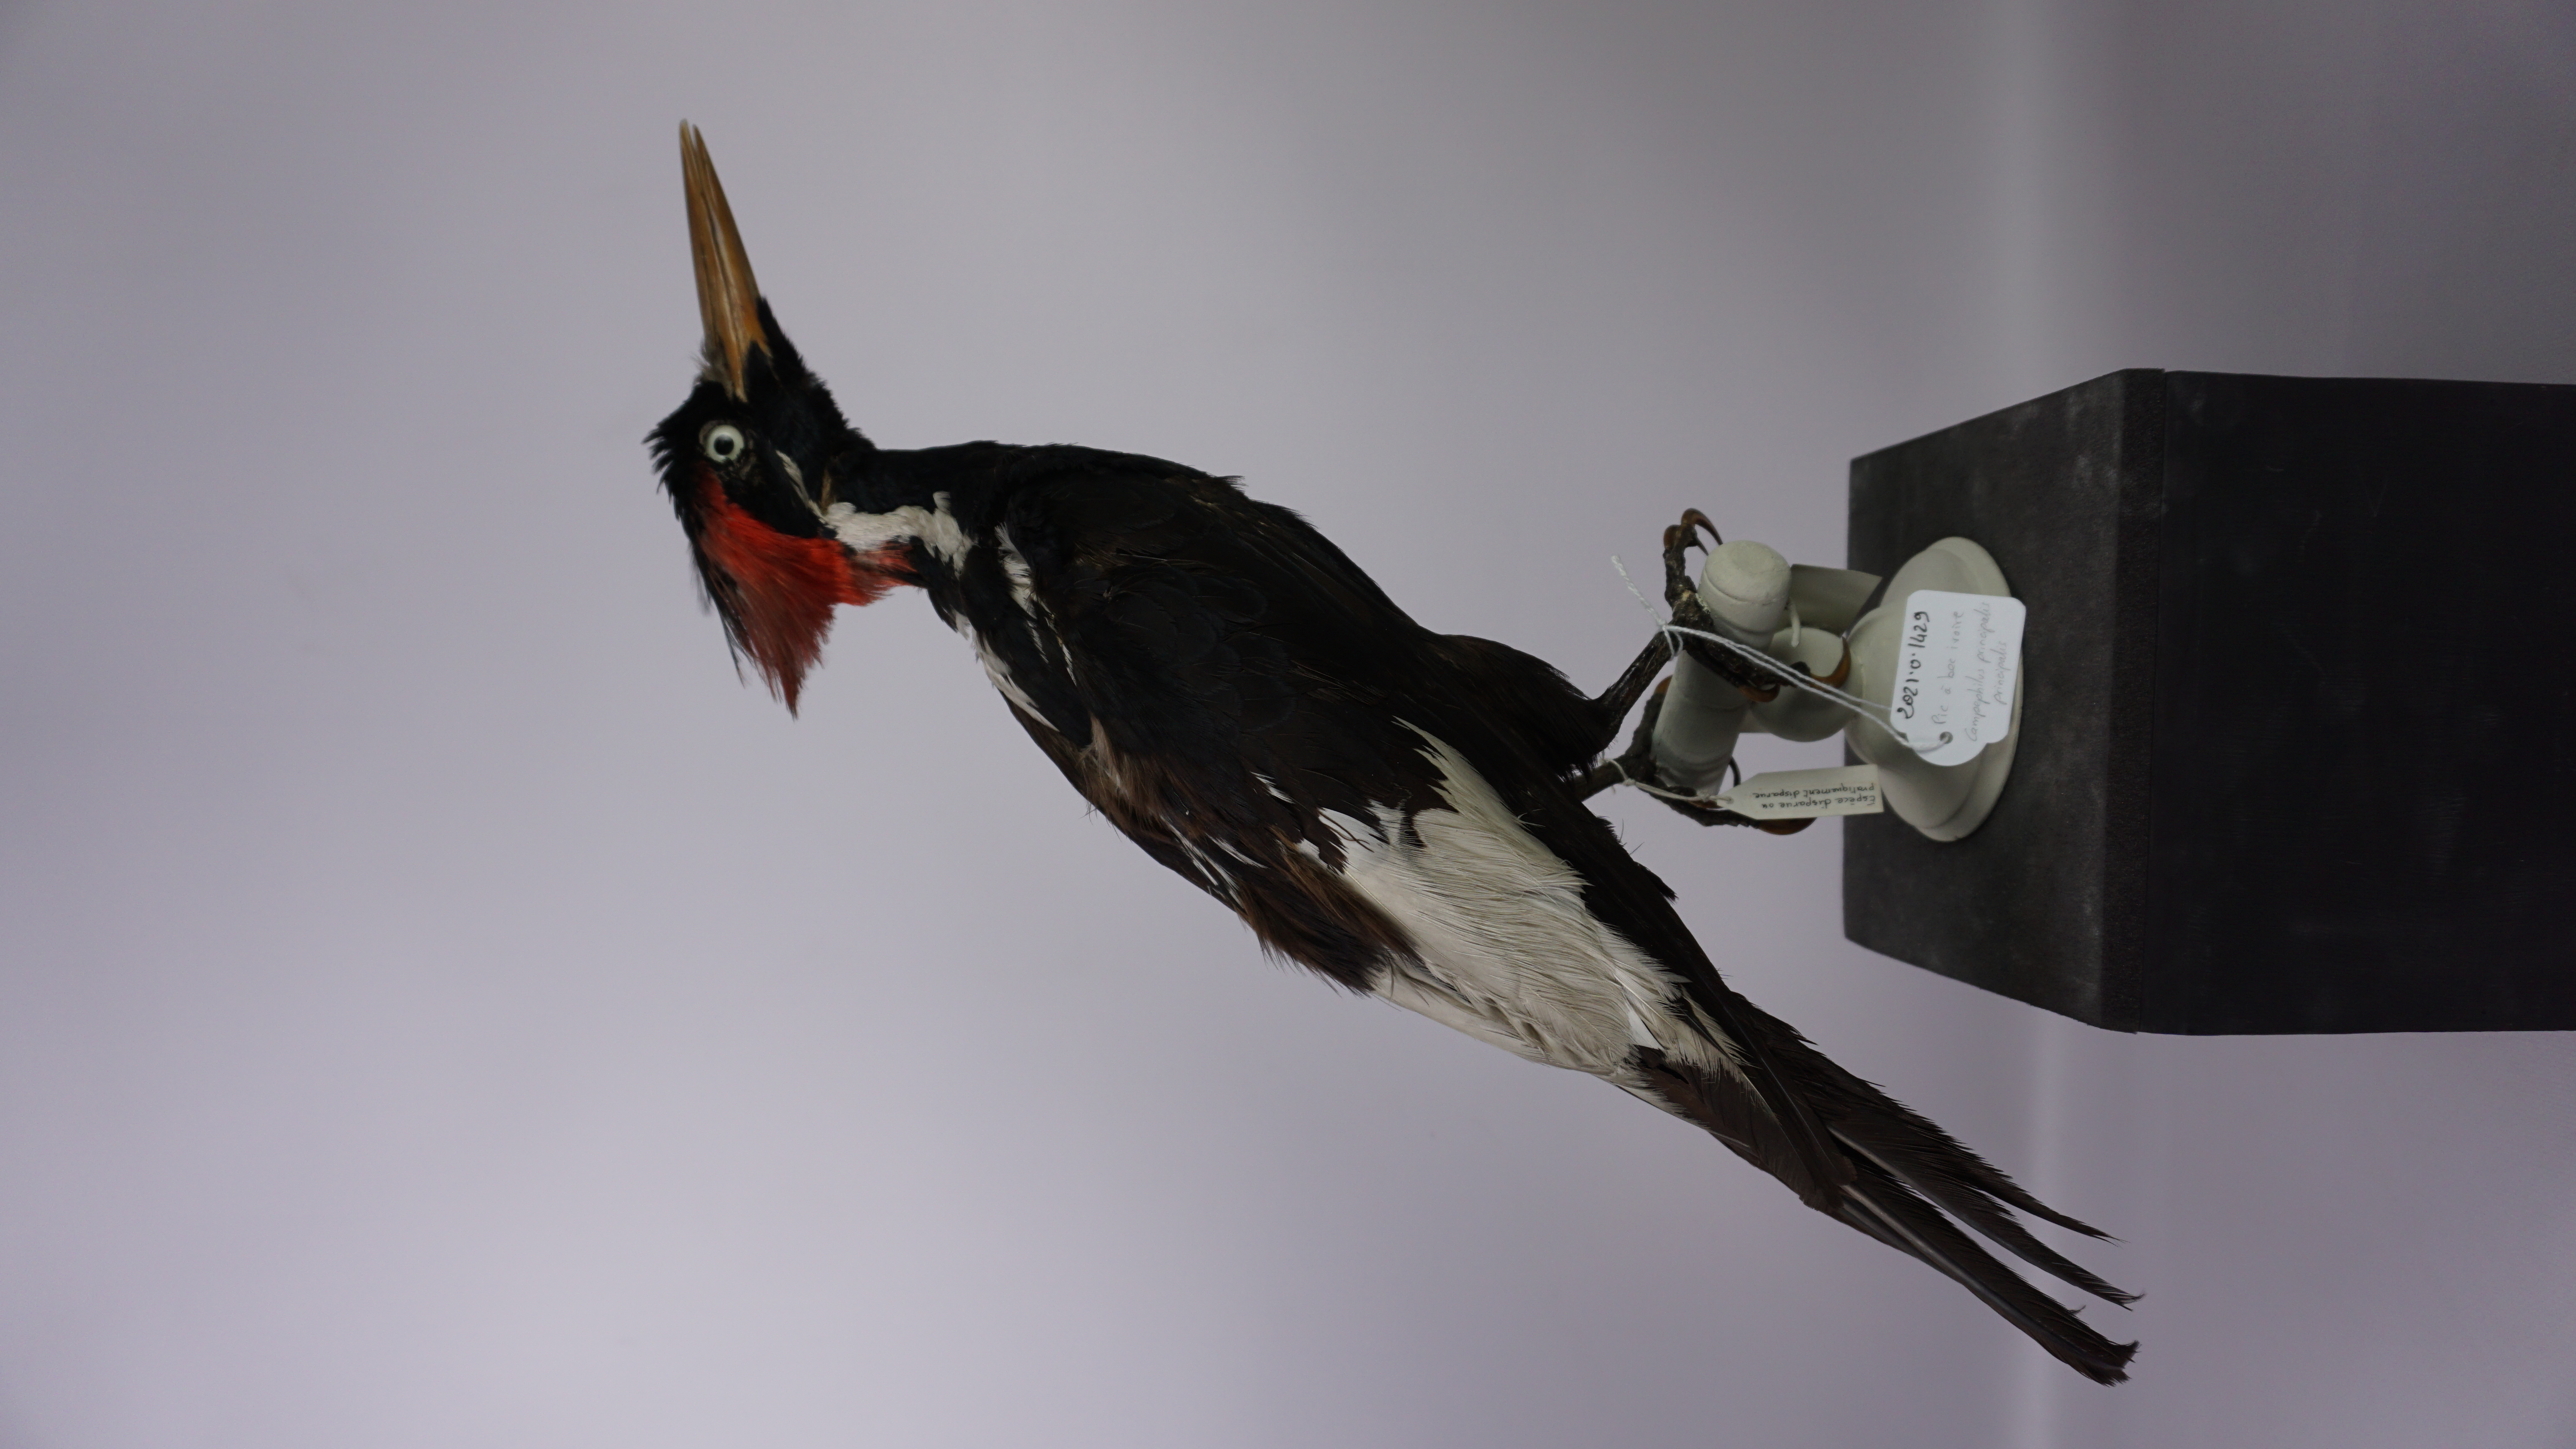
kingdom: Animalia
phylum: Chordata
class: Aves
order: Piciformes
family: Picidae
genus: Campephilus
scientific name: Campephilus principalis
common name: Ivory-billed woodpecker
